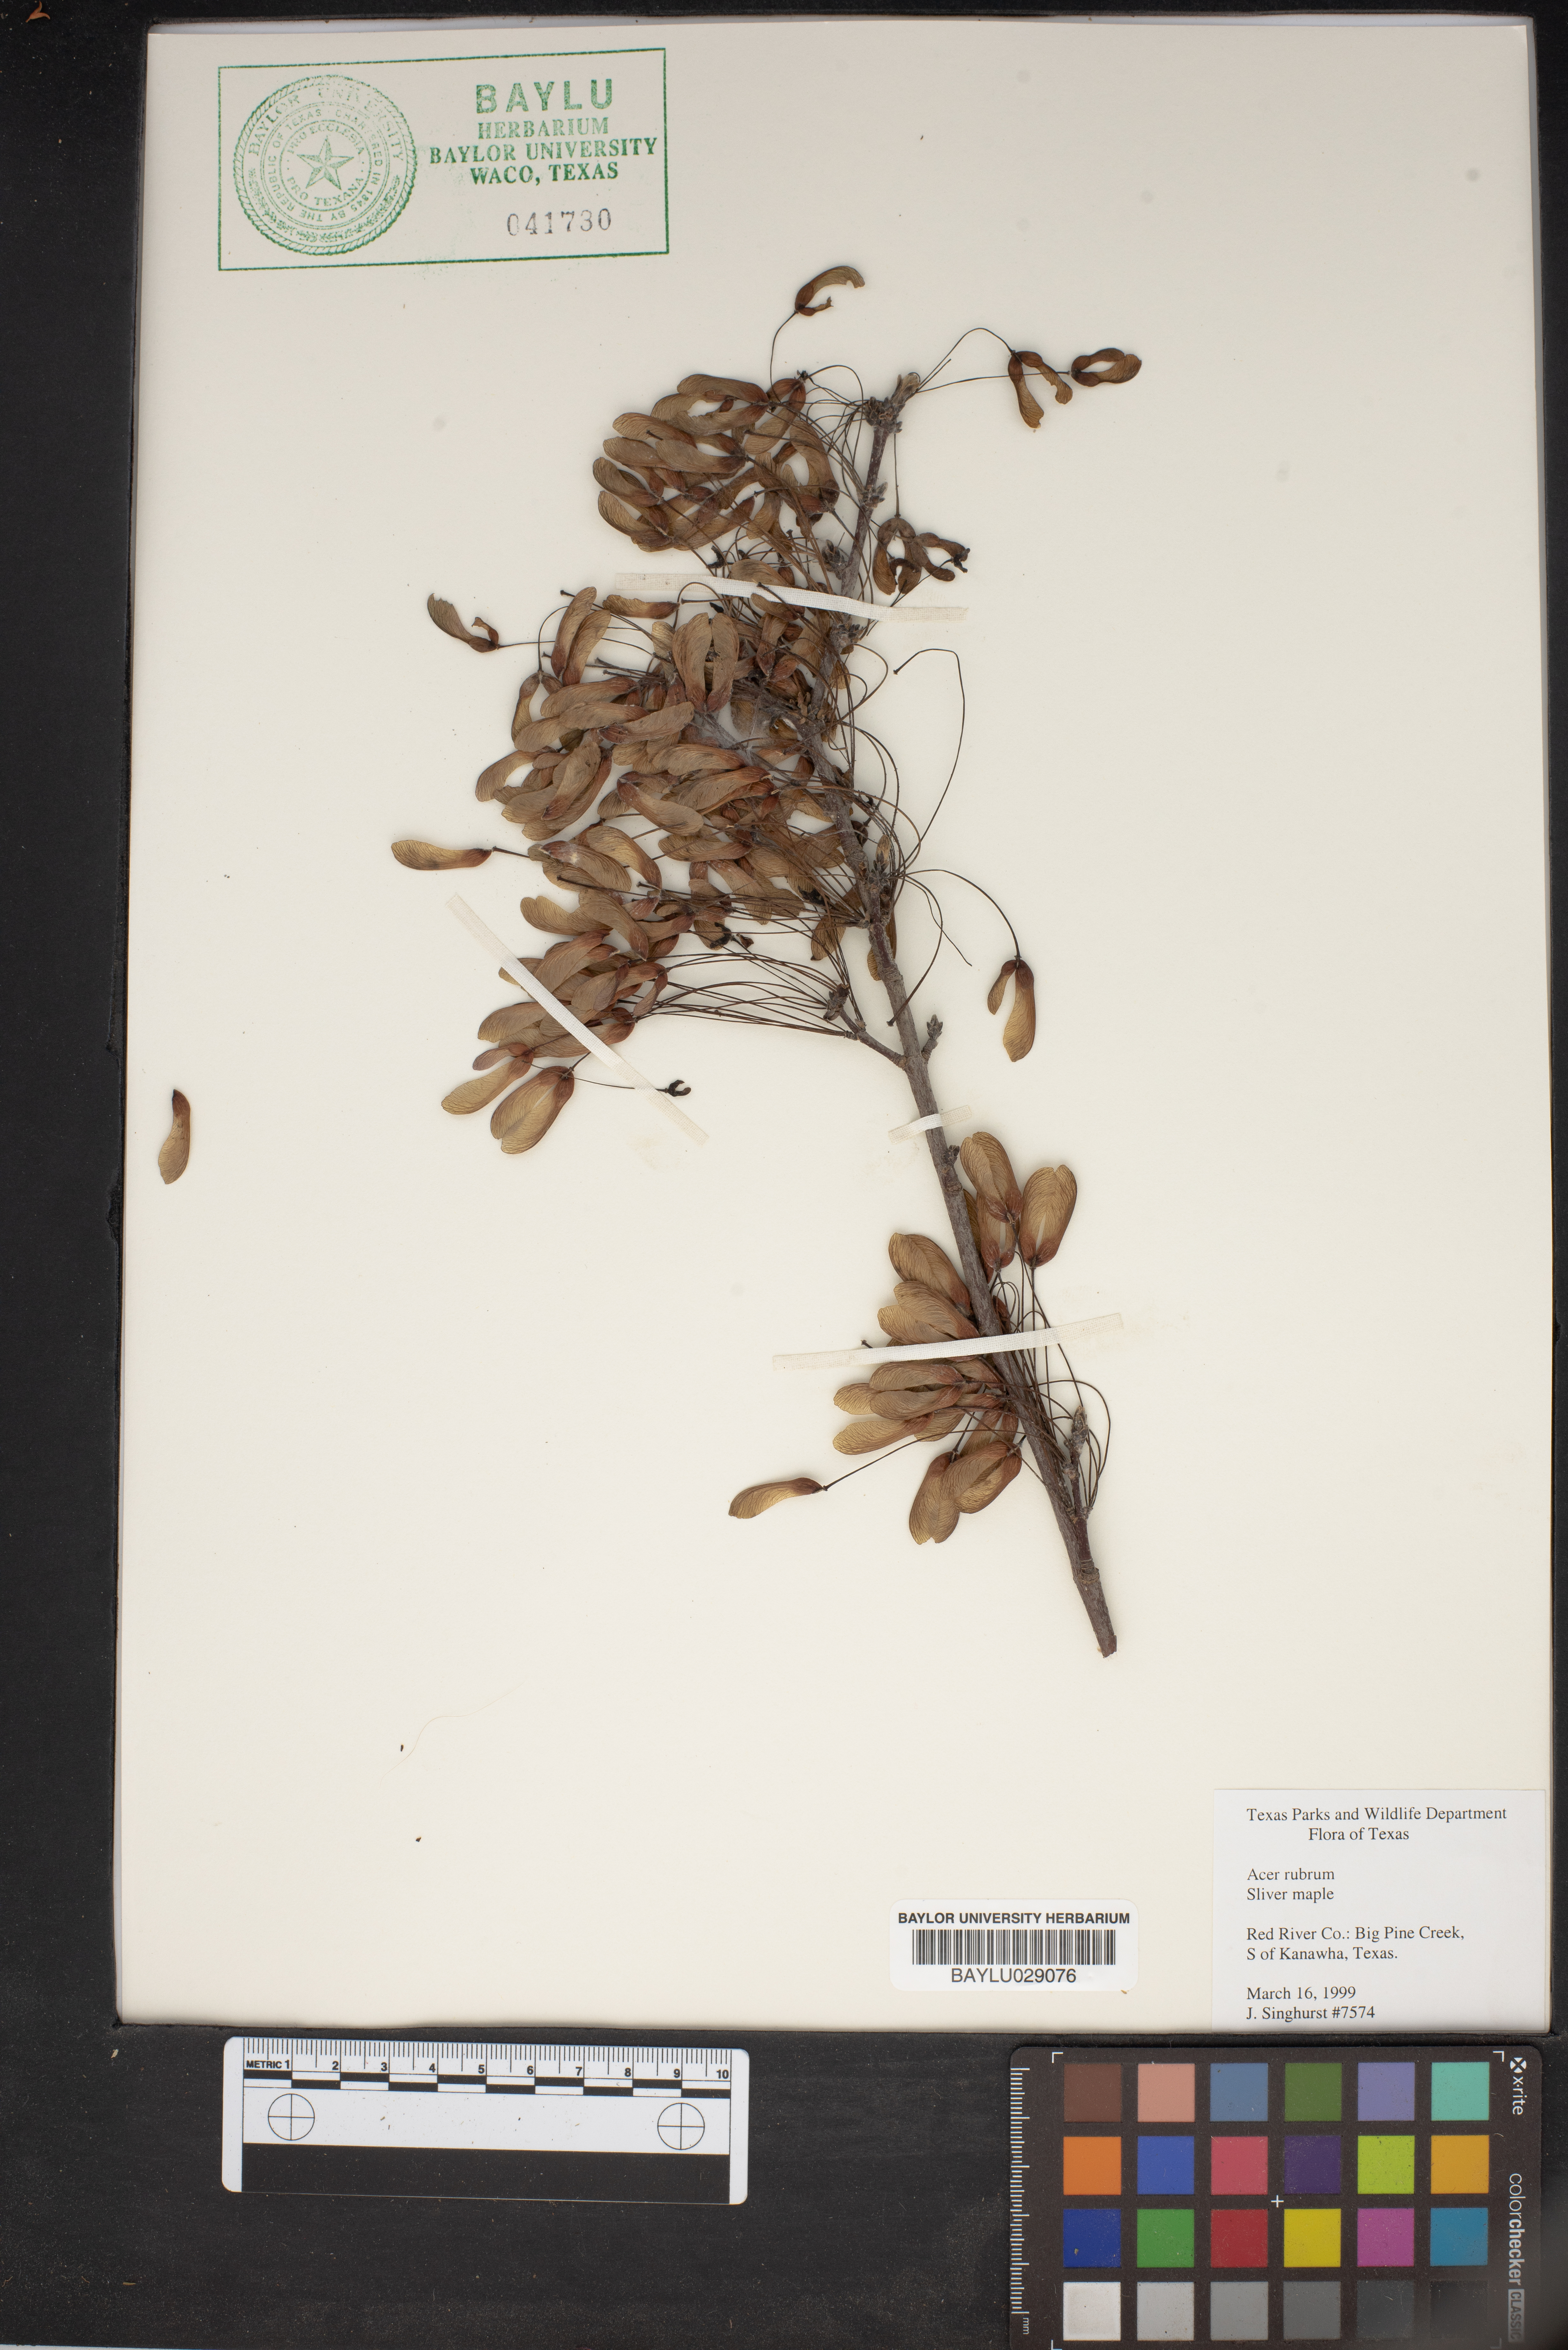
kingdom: Plantae
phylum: Tracheophyta
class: Magnoliopsida
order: Sapindales
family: Sapindaceae
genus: Acer
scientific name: Acer rubrum
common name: Red maple
